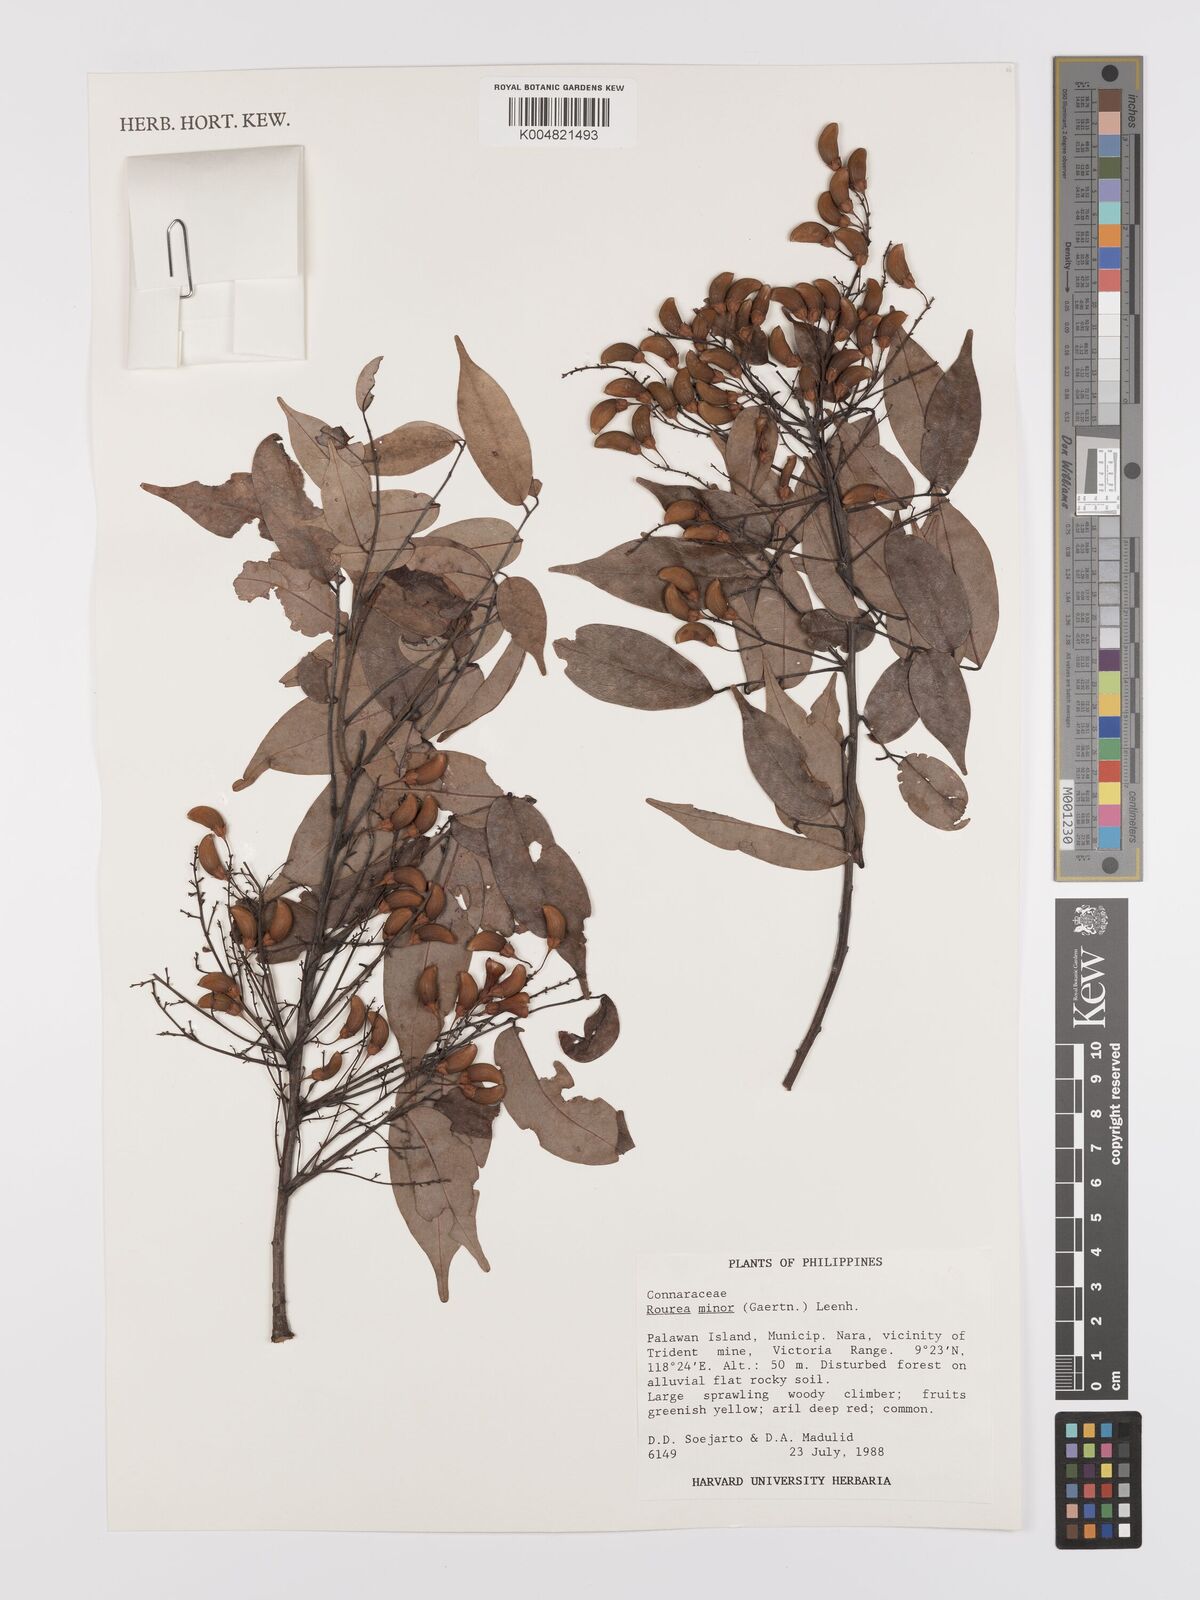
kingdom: Plantae
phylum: Tracheophyta
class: Magnoliopsida
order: Oxalidales
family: Connaraceae
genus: Rourea
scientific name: Rourea minor
